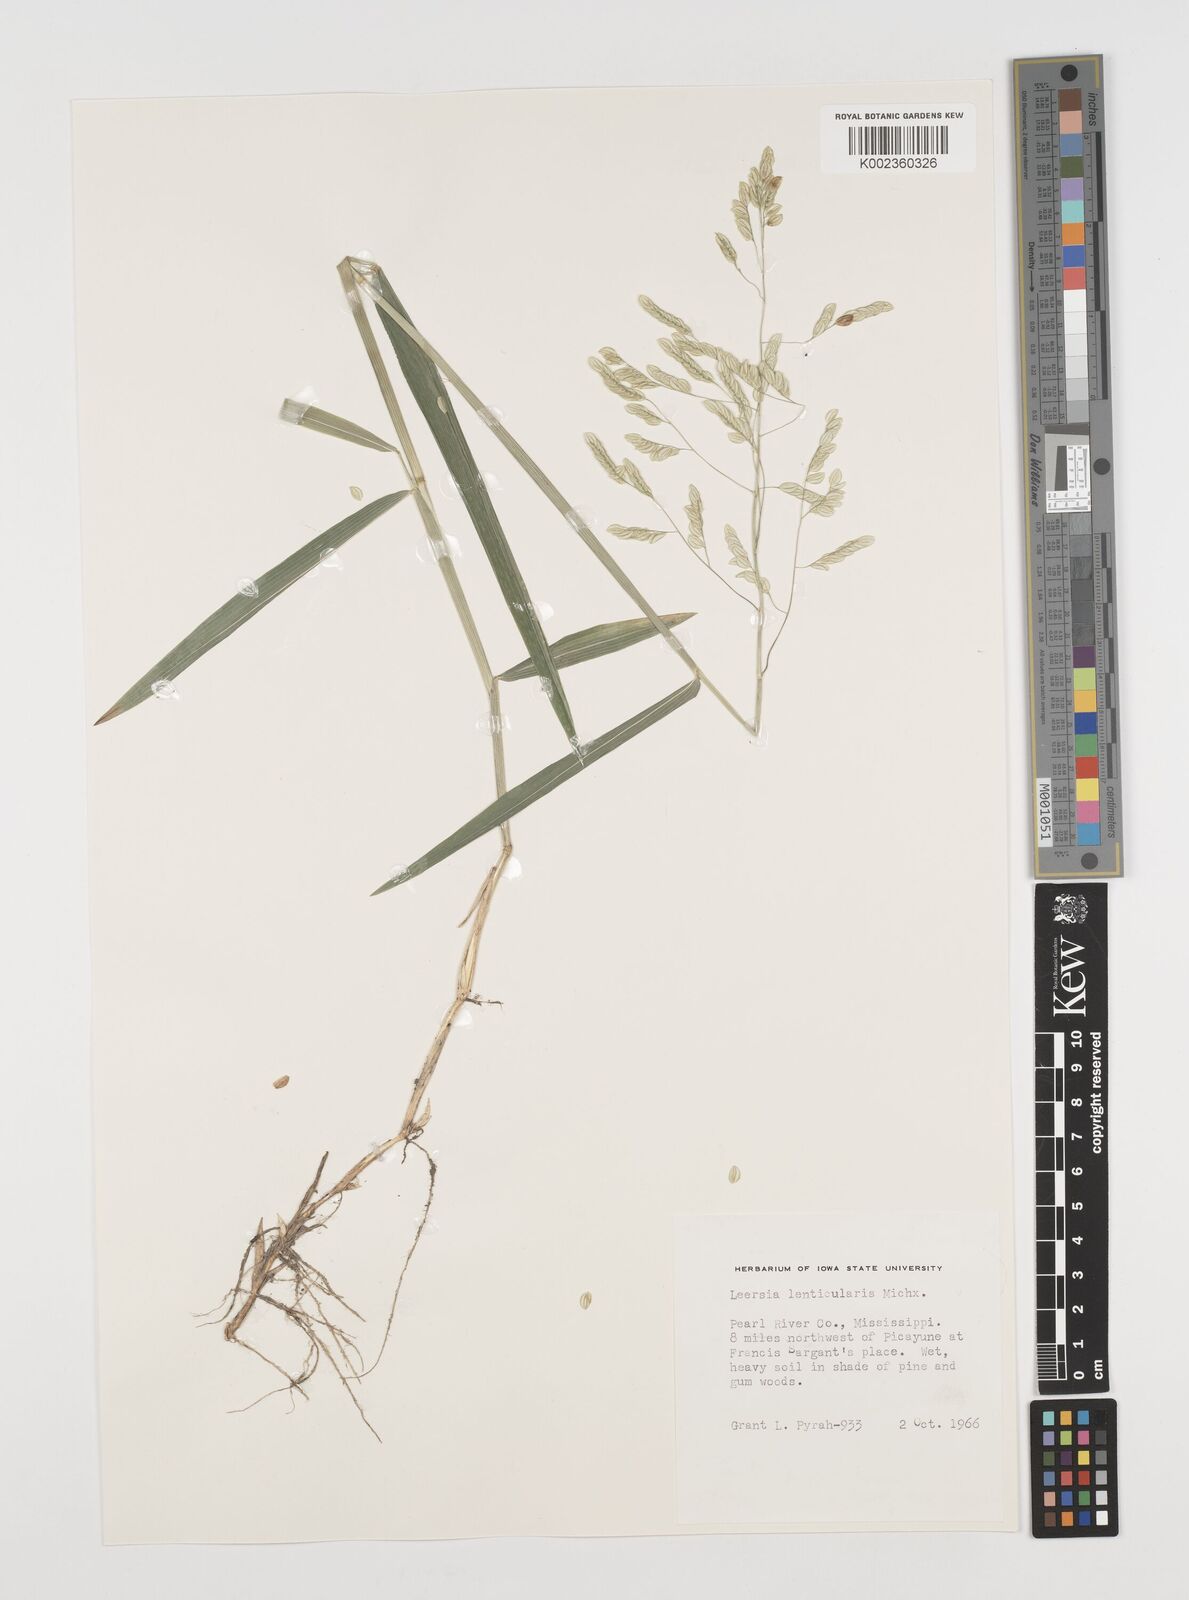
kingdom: Plantae
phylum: Tracheophyta
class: Liliopsida
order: Poales
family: Poaceae
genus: Leersia
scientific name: Leersia lenticularis
